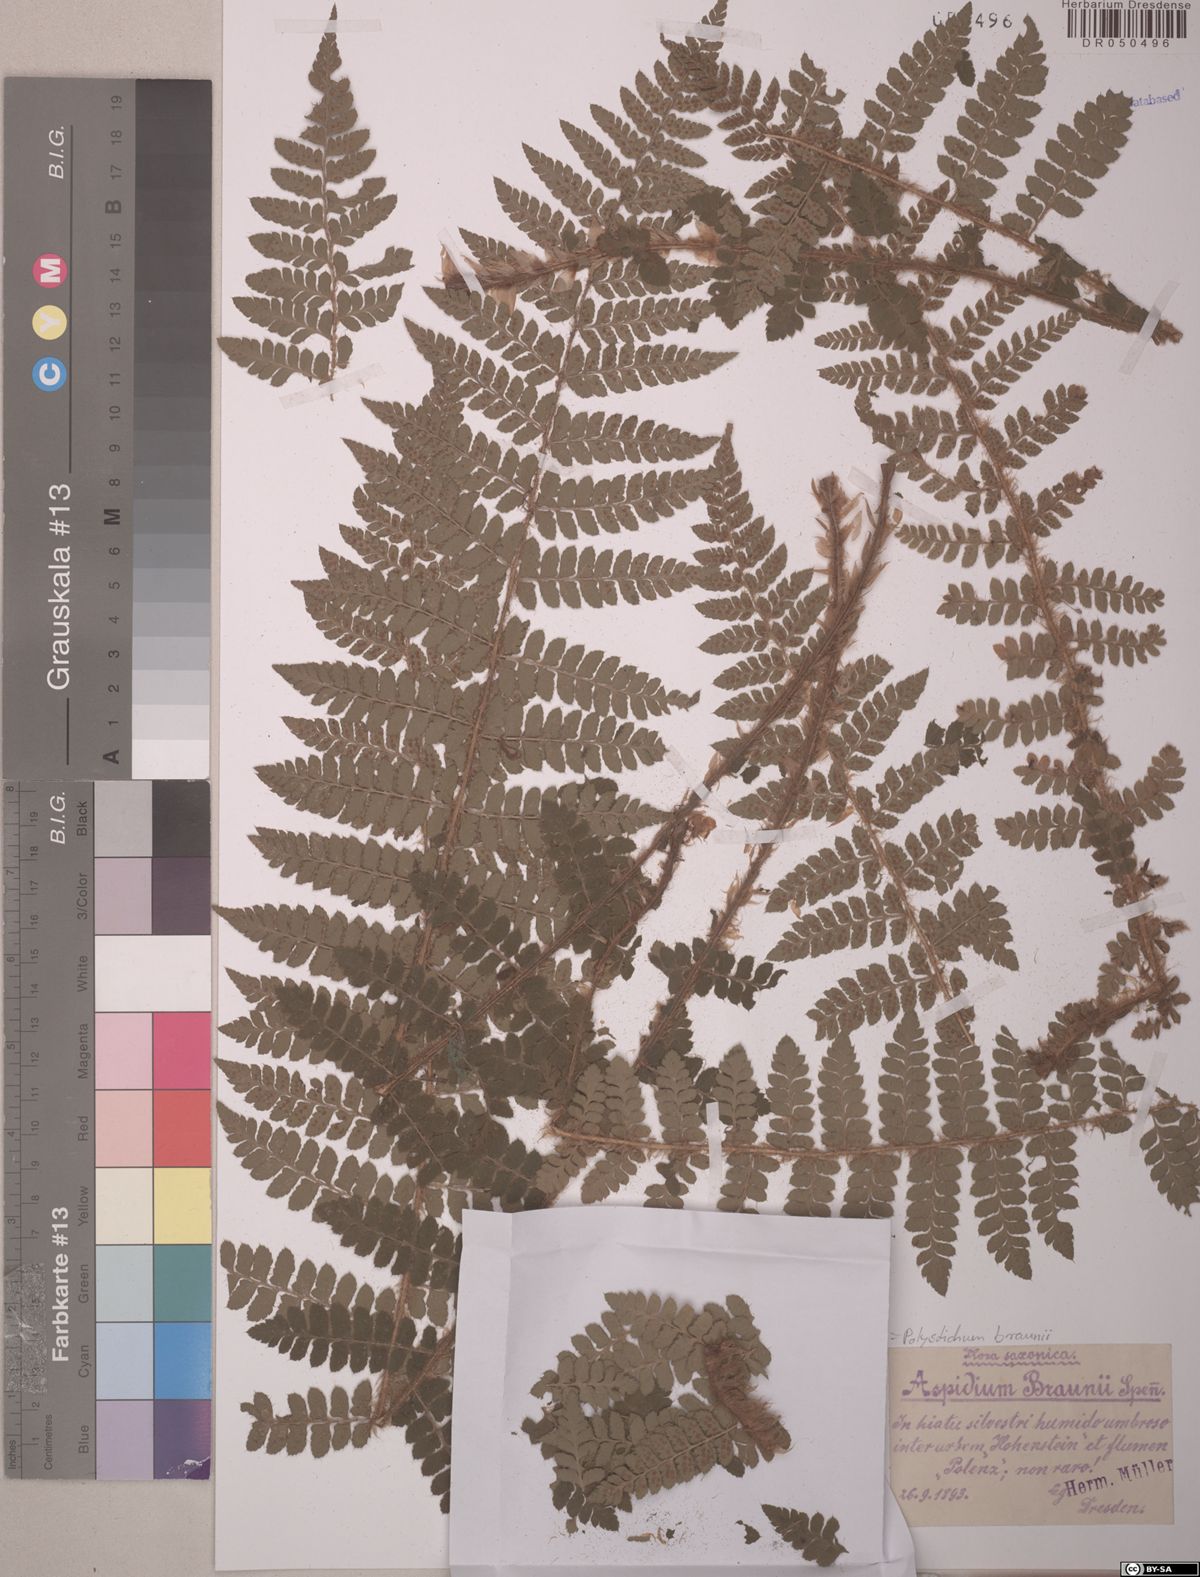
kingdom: Plantae
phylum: Tracheophyta
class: Polypodiopsida
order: Polypodiales
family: Dryopteridaceae
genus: Polystichum
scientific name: Polystichum braunii
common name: Braun's holly fern
